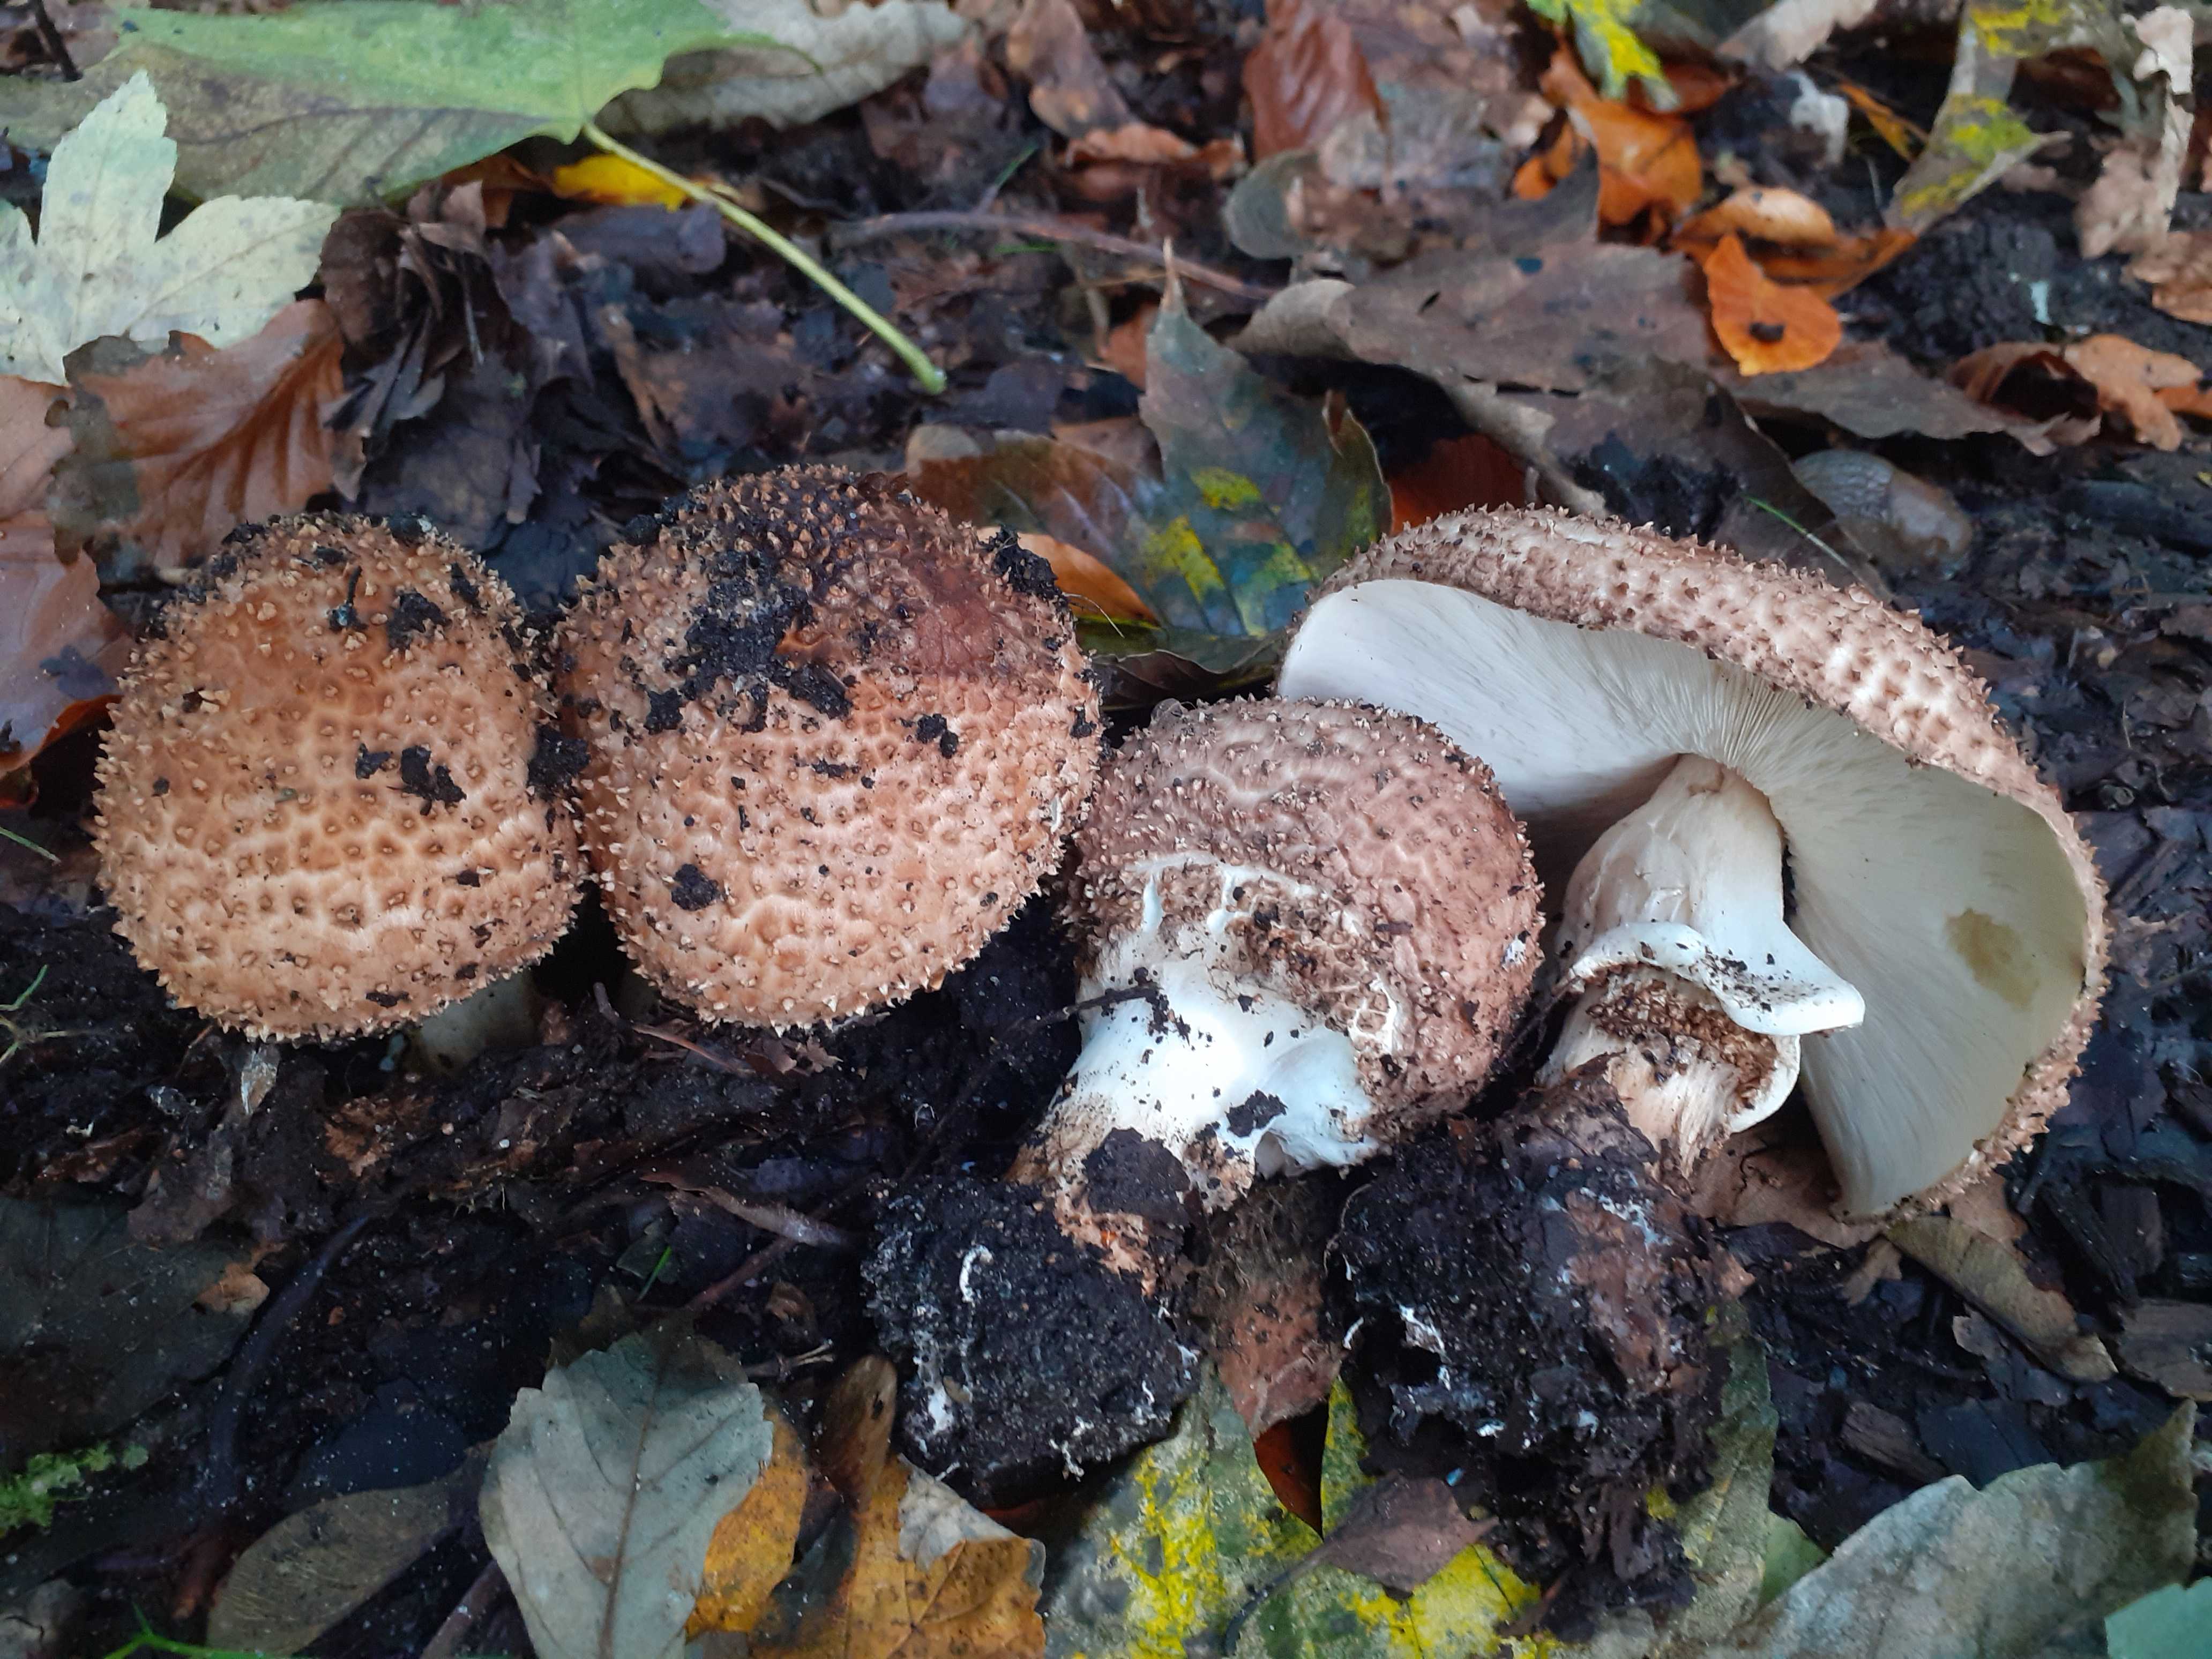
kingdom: Fungi
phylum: Basidiomycota
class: Agaricomycetes
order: Agaricales
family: Agaricaceae
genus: Echinoderma
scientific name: Echinoderma asperum
